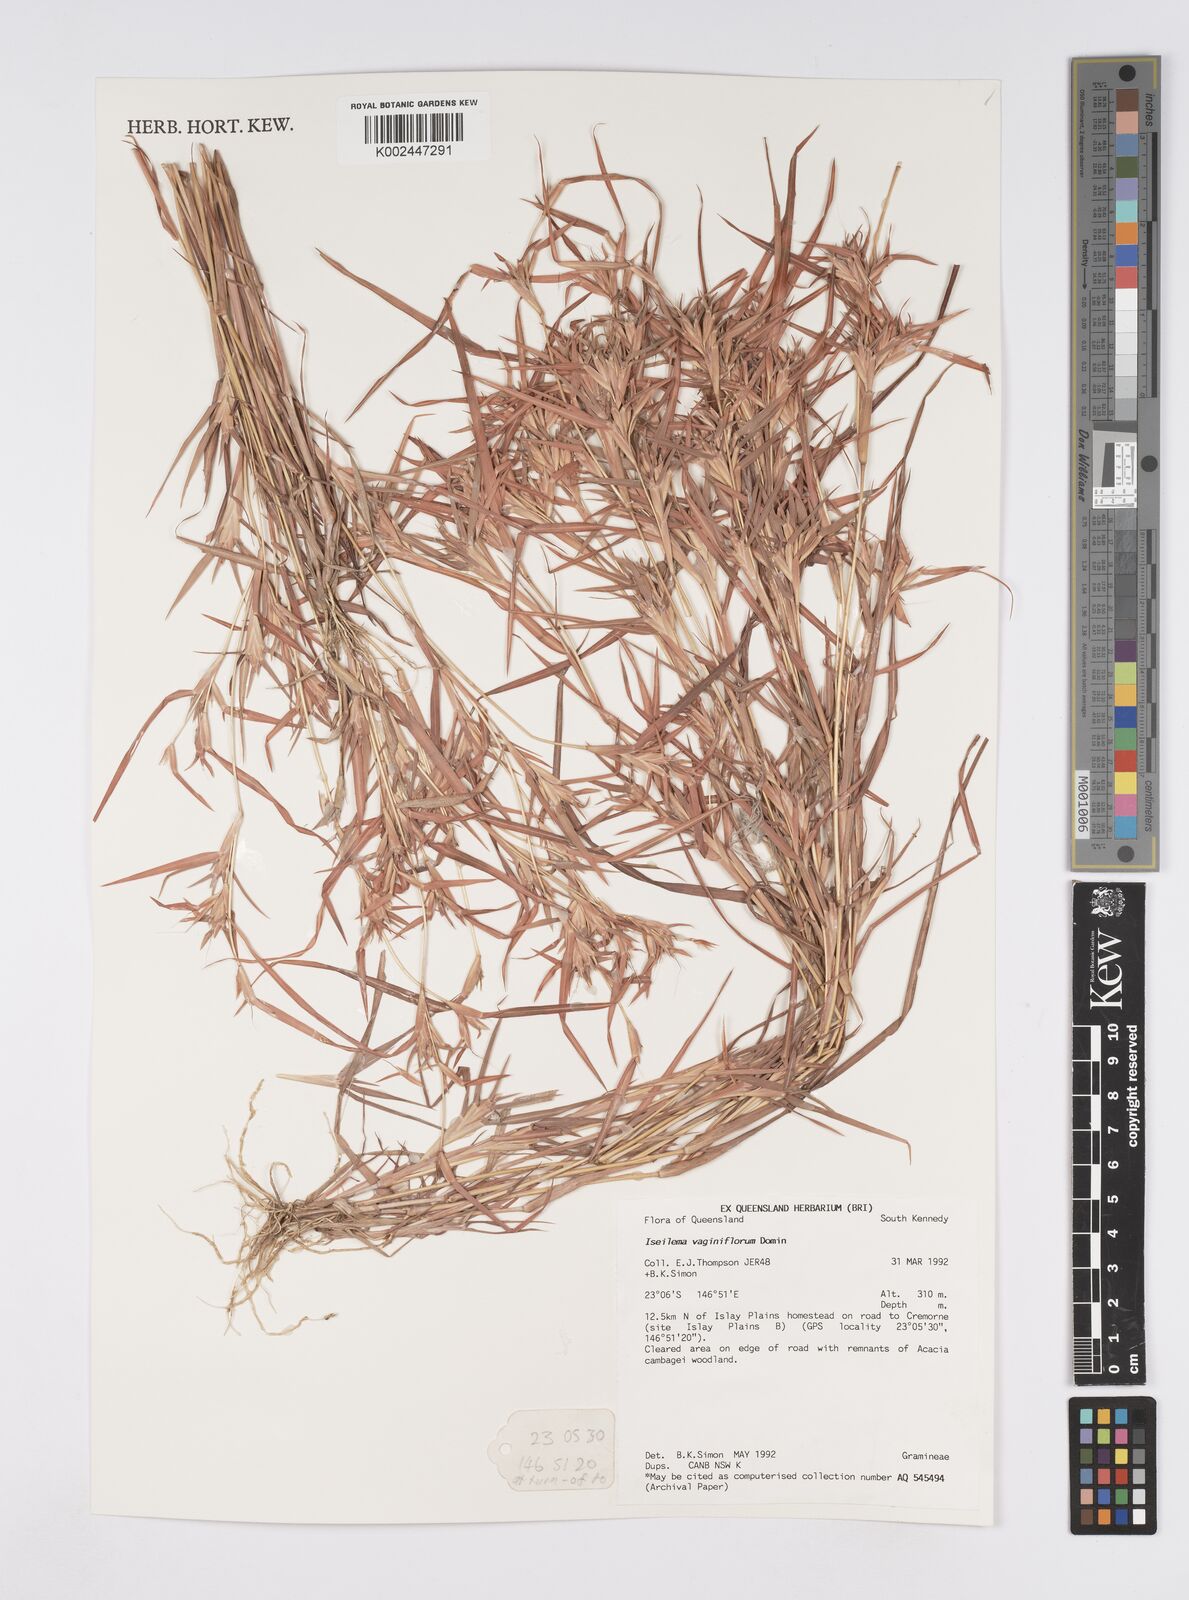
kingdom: Plantae
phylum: Tracheophyta
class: Liliopsida
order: Poales
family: Poaceae
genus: Iseilema
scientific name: Iseilema vaginiflorum
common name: Red flinders grass
